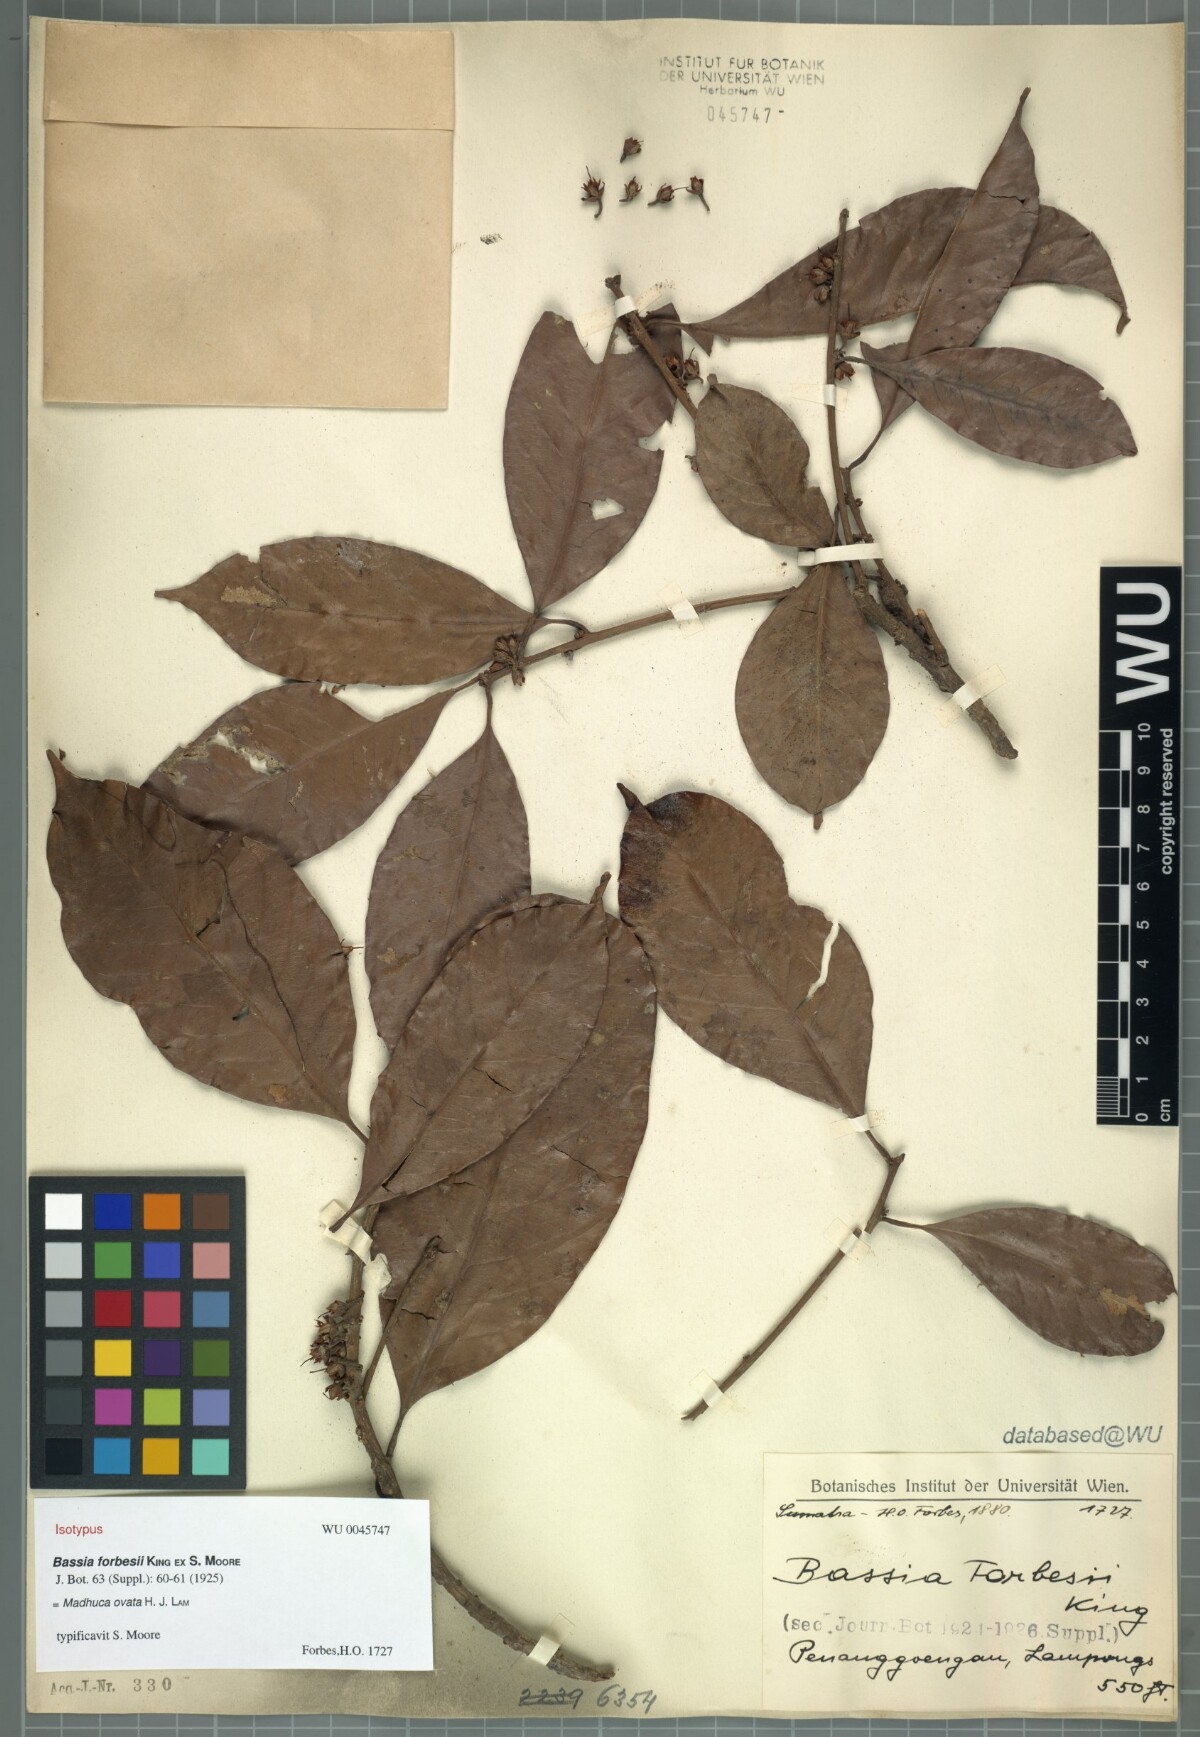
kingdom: Plantae
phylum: Tracheophyta
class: Magnoliopsida
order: Ericales
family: Sapotaceae
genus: Madhuca
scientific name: Madhuca ovata
